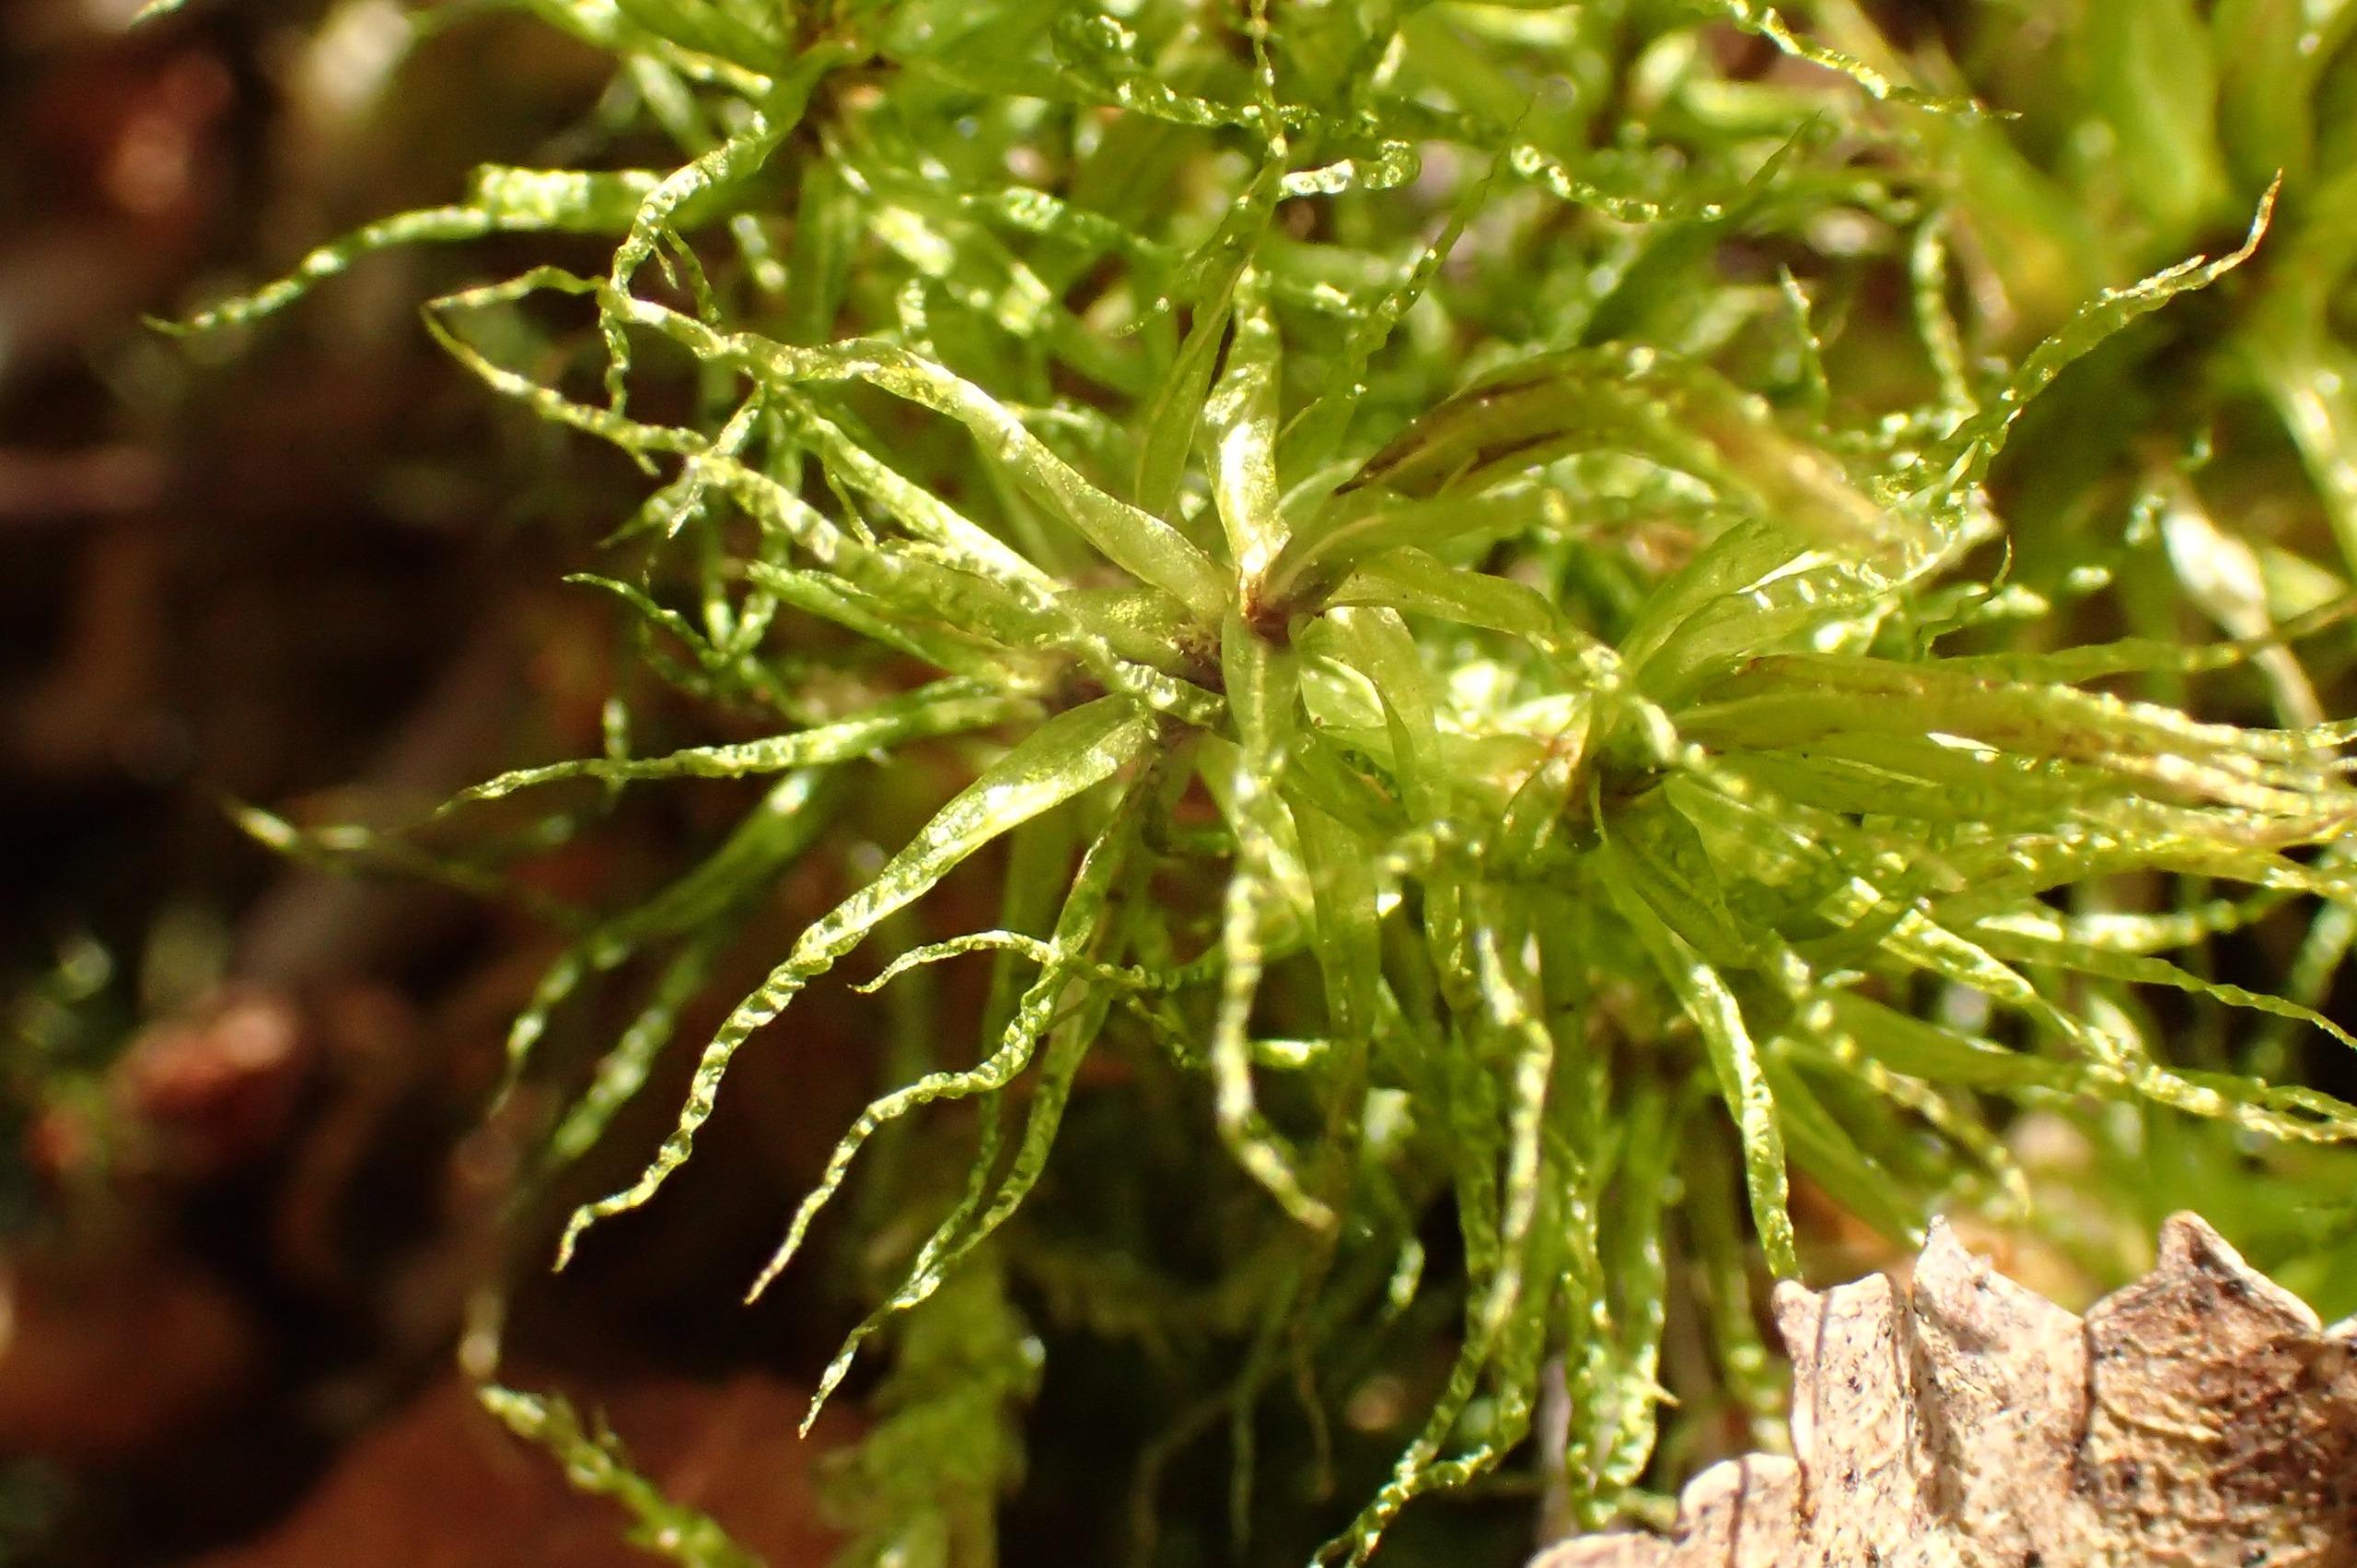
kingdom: Plantae
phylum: Bryophyta
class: Bryopsida
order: Dicranales
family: Dicranaceae
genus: Dicranum
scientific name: Dicranum bonjeanii
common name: Kær-kløvtand
